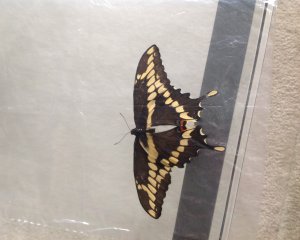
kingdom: Animalia
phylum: Arthropoda
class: Insecta
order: Lepidoptera
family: Papilionidae
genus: Papilio
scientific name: Papilio cresphontes
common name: Eastern Giant Swallowtail
